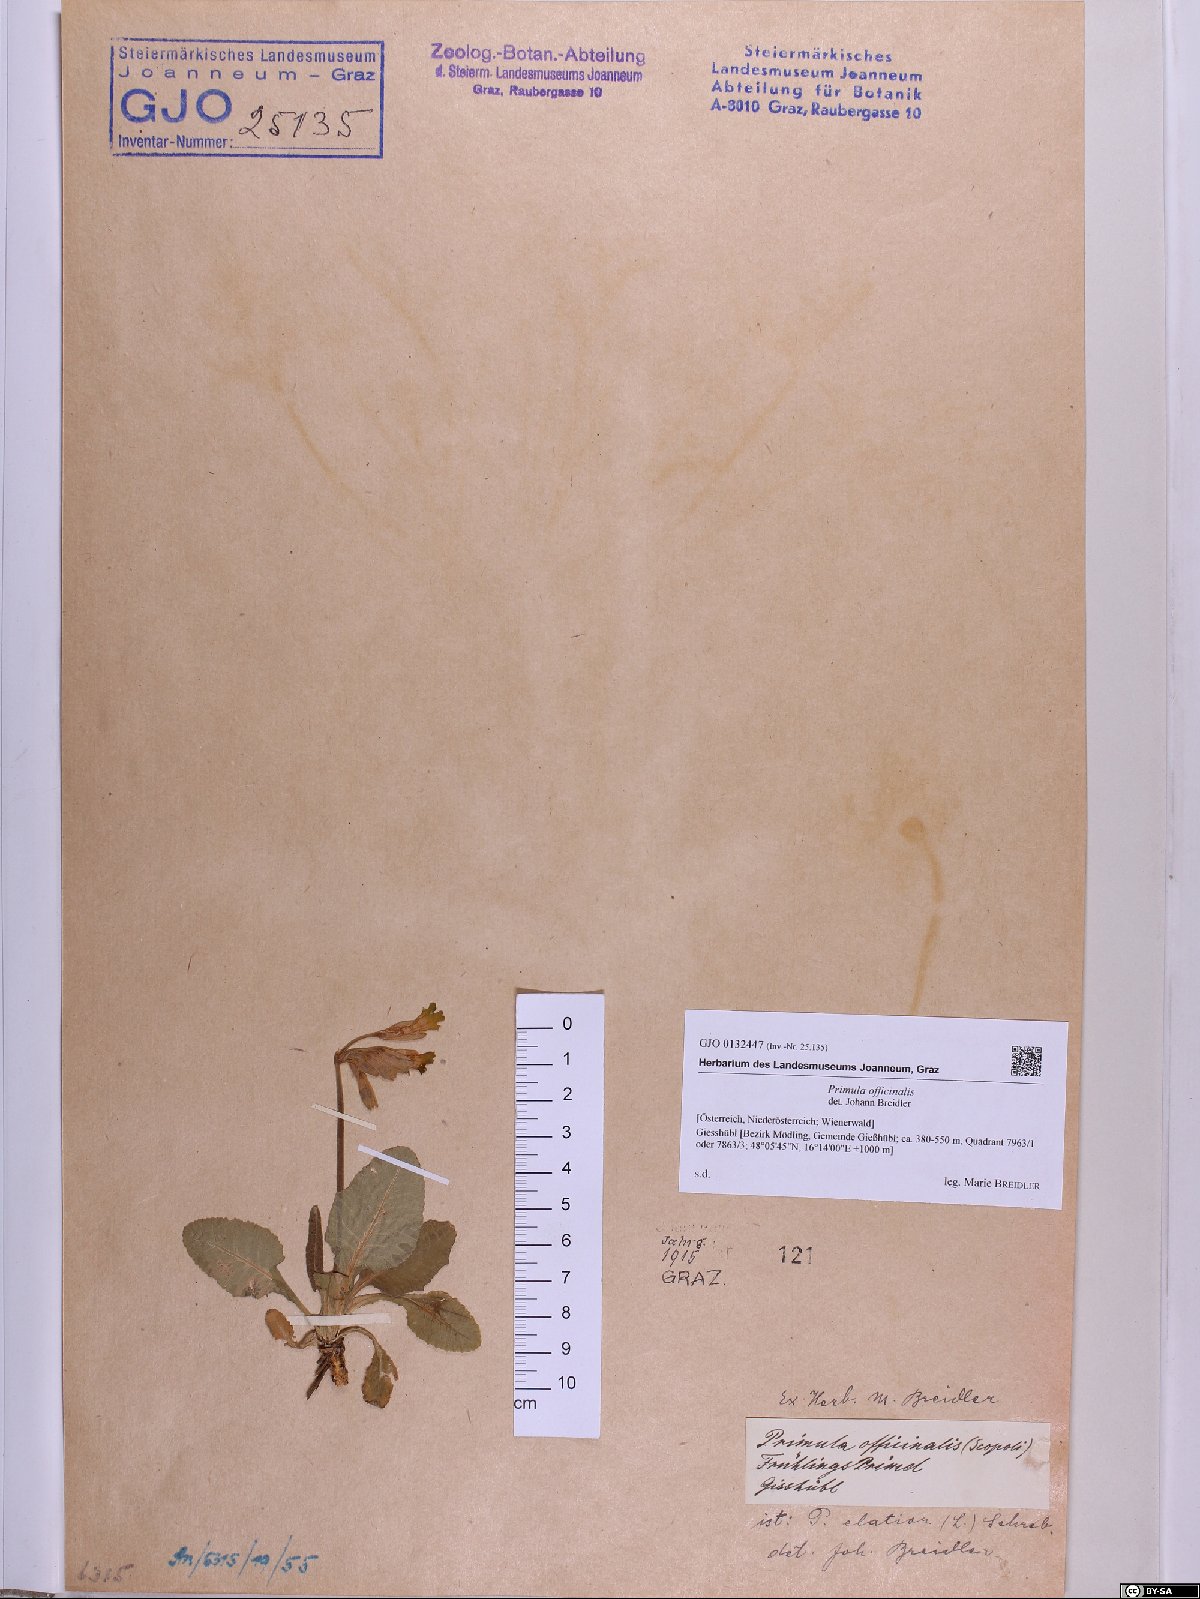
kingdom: Plantae
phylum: Tracheophyta
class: Magnoliopsida
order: Ericales
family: Primulaceae
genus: Primula
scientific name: Primula veris
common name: Cowslip
